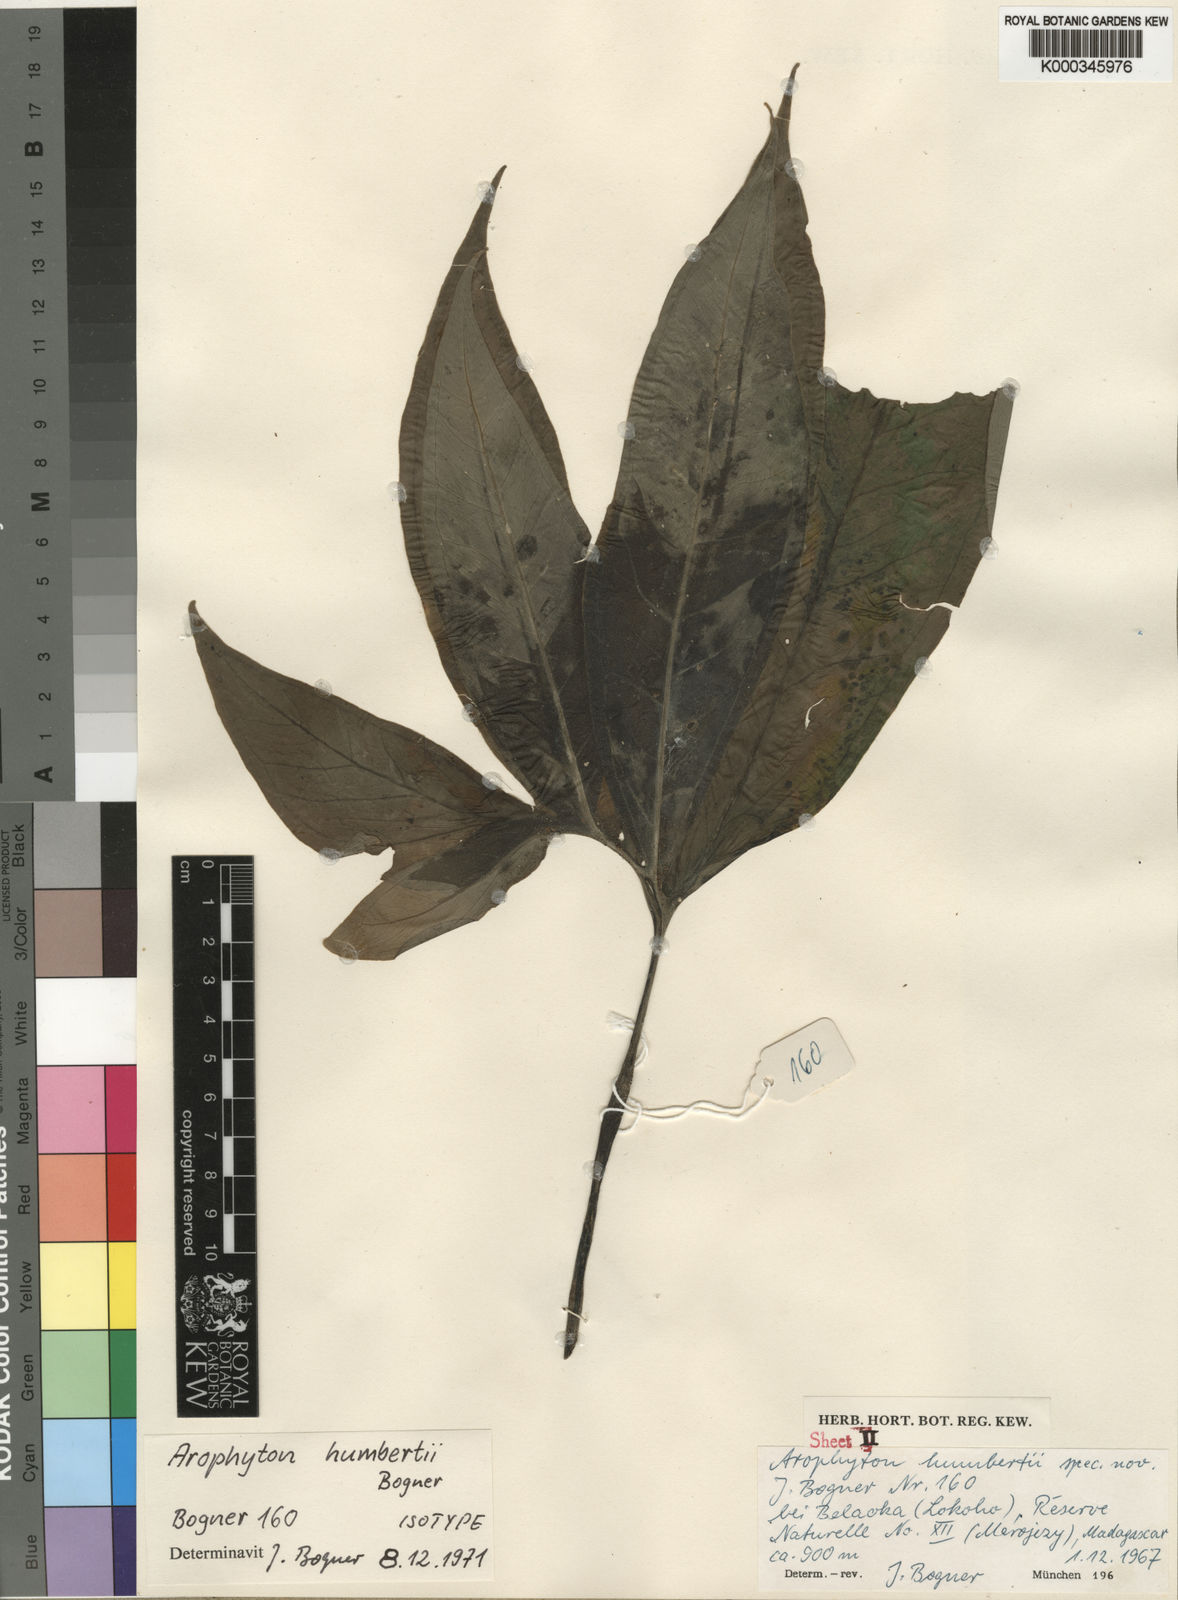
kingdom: Plantae
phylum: Tracheophyta
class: Liliopsida
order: Alismatales
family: Araceae
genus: Arophyton
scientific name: Arophyton humbertii
